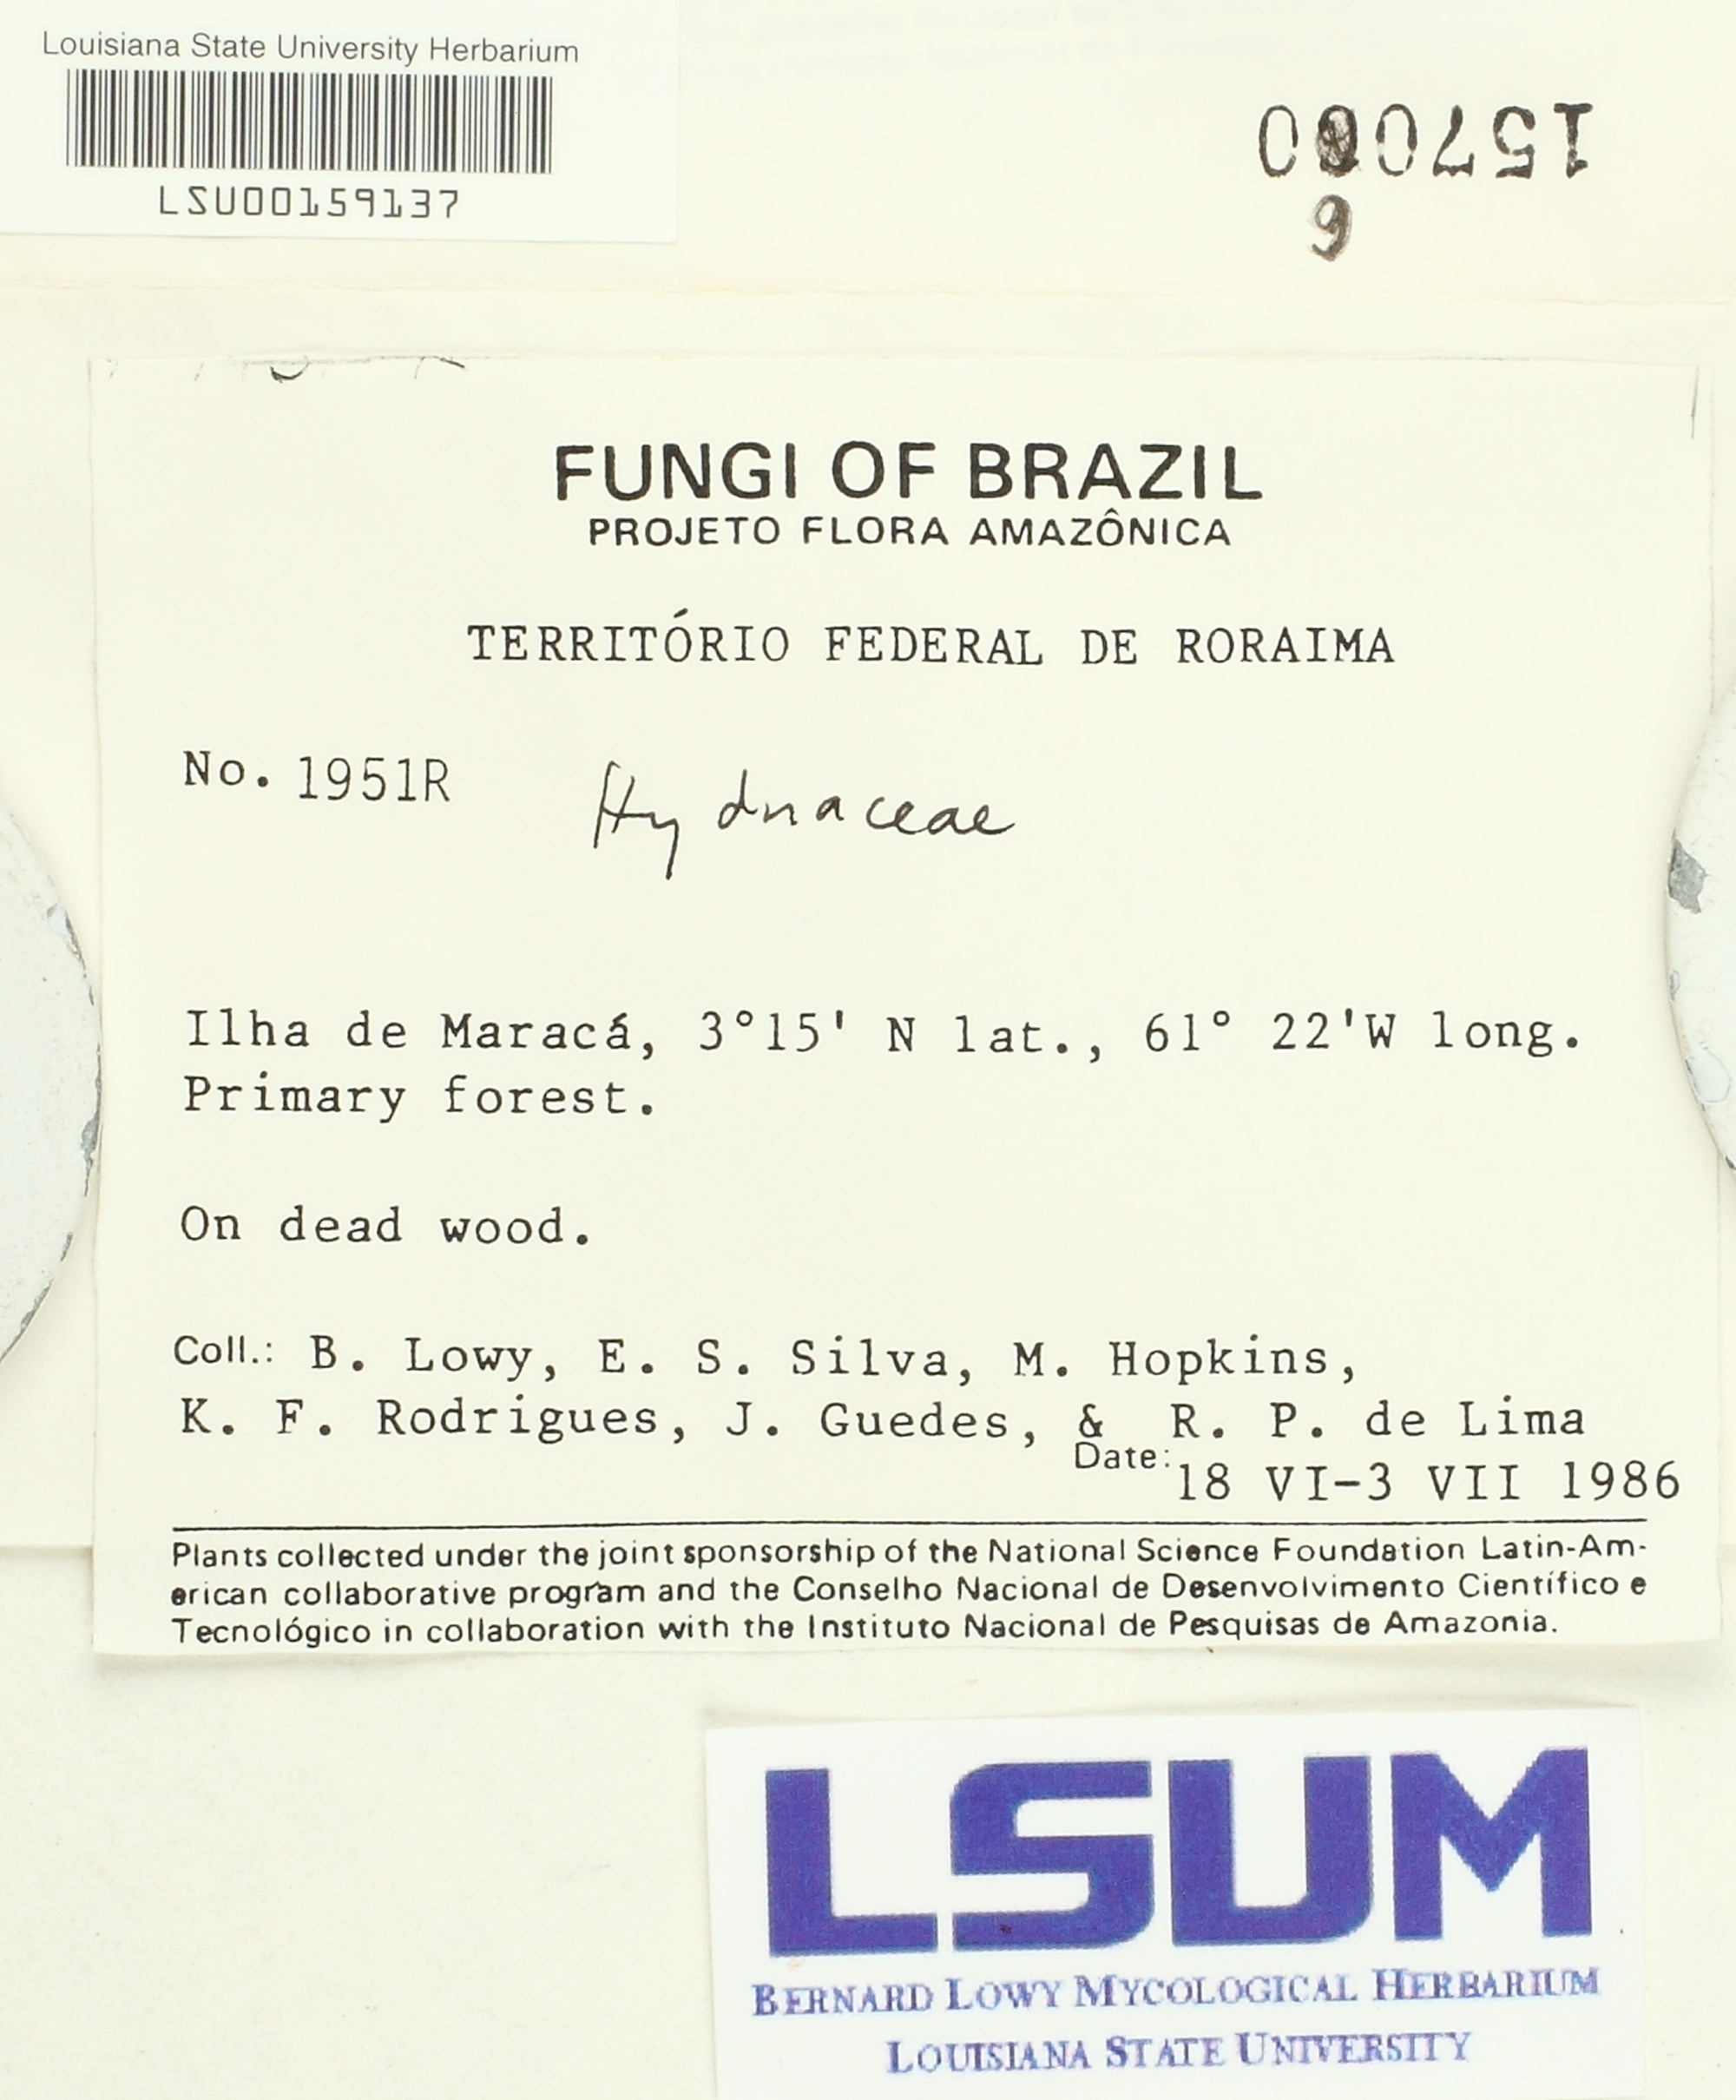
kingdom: Fungi
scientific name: Fungi
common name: Fungi
